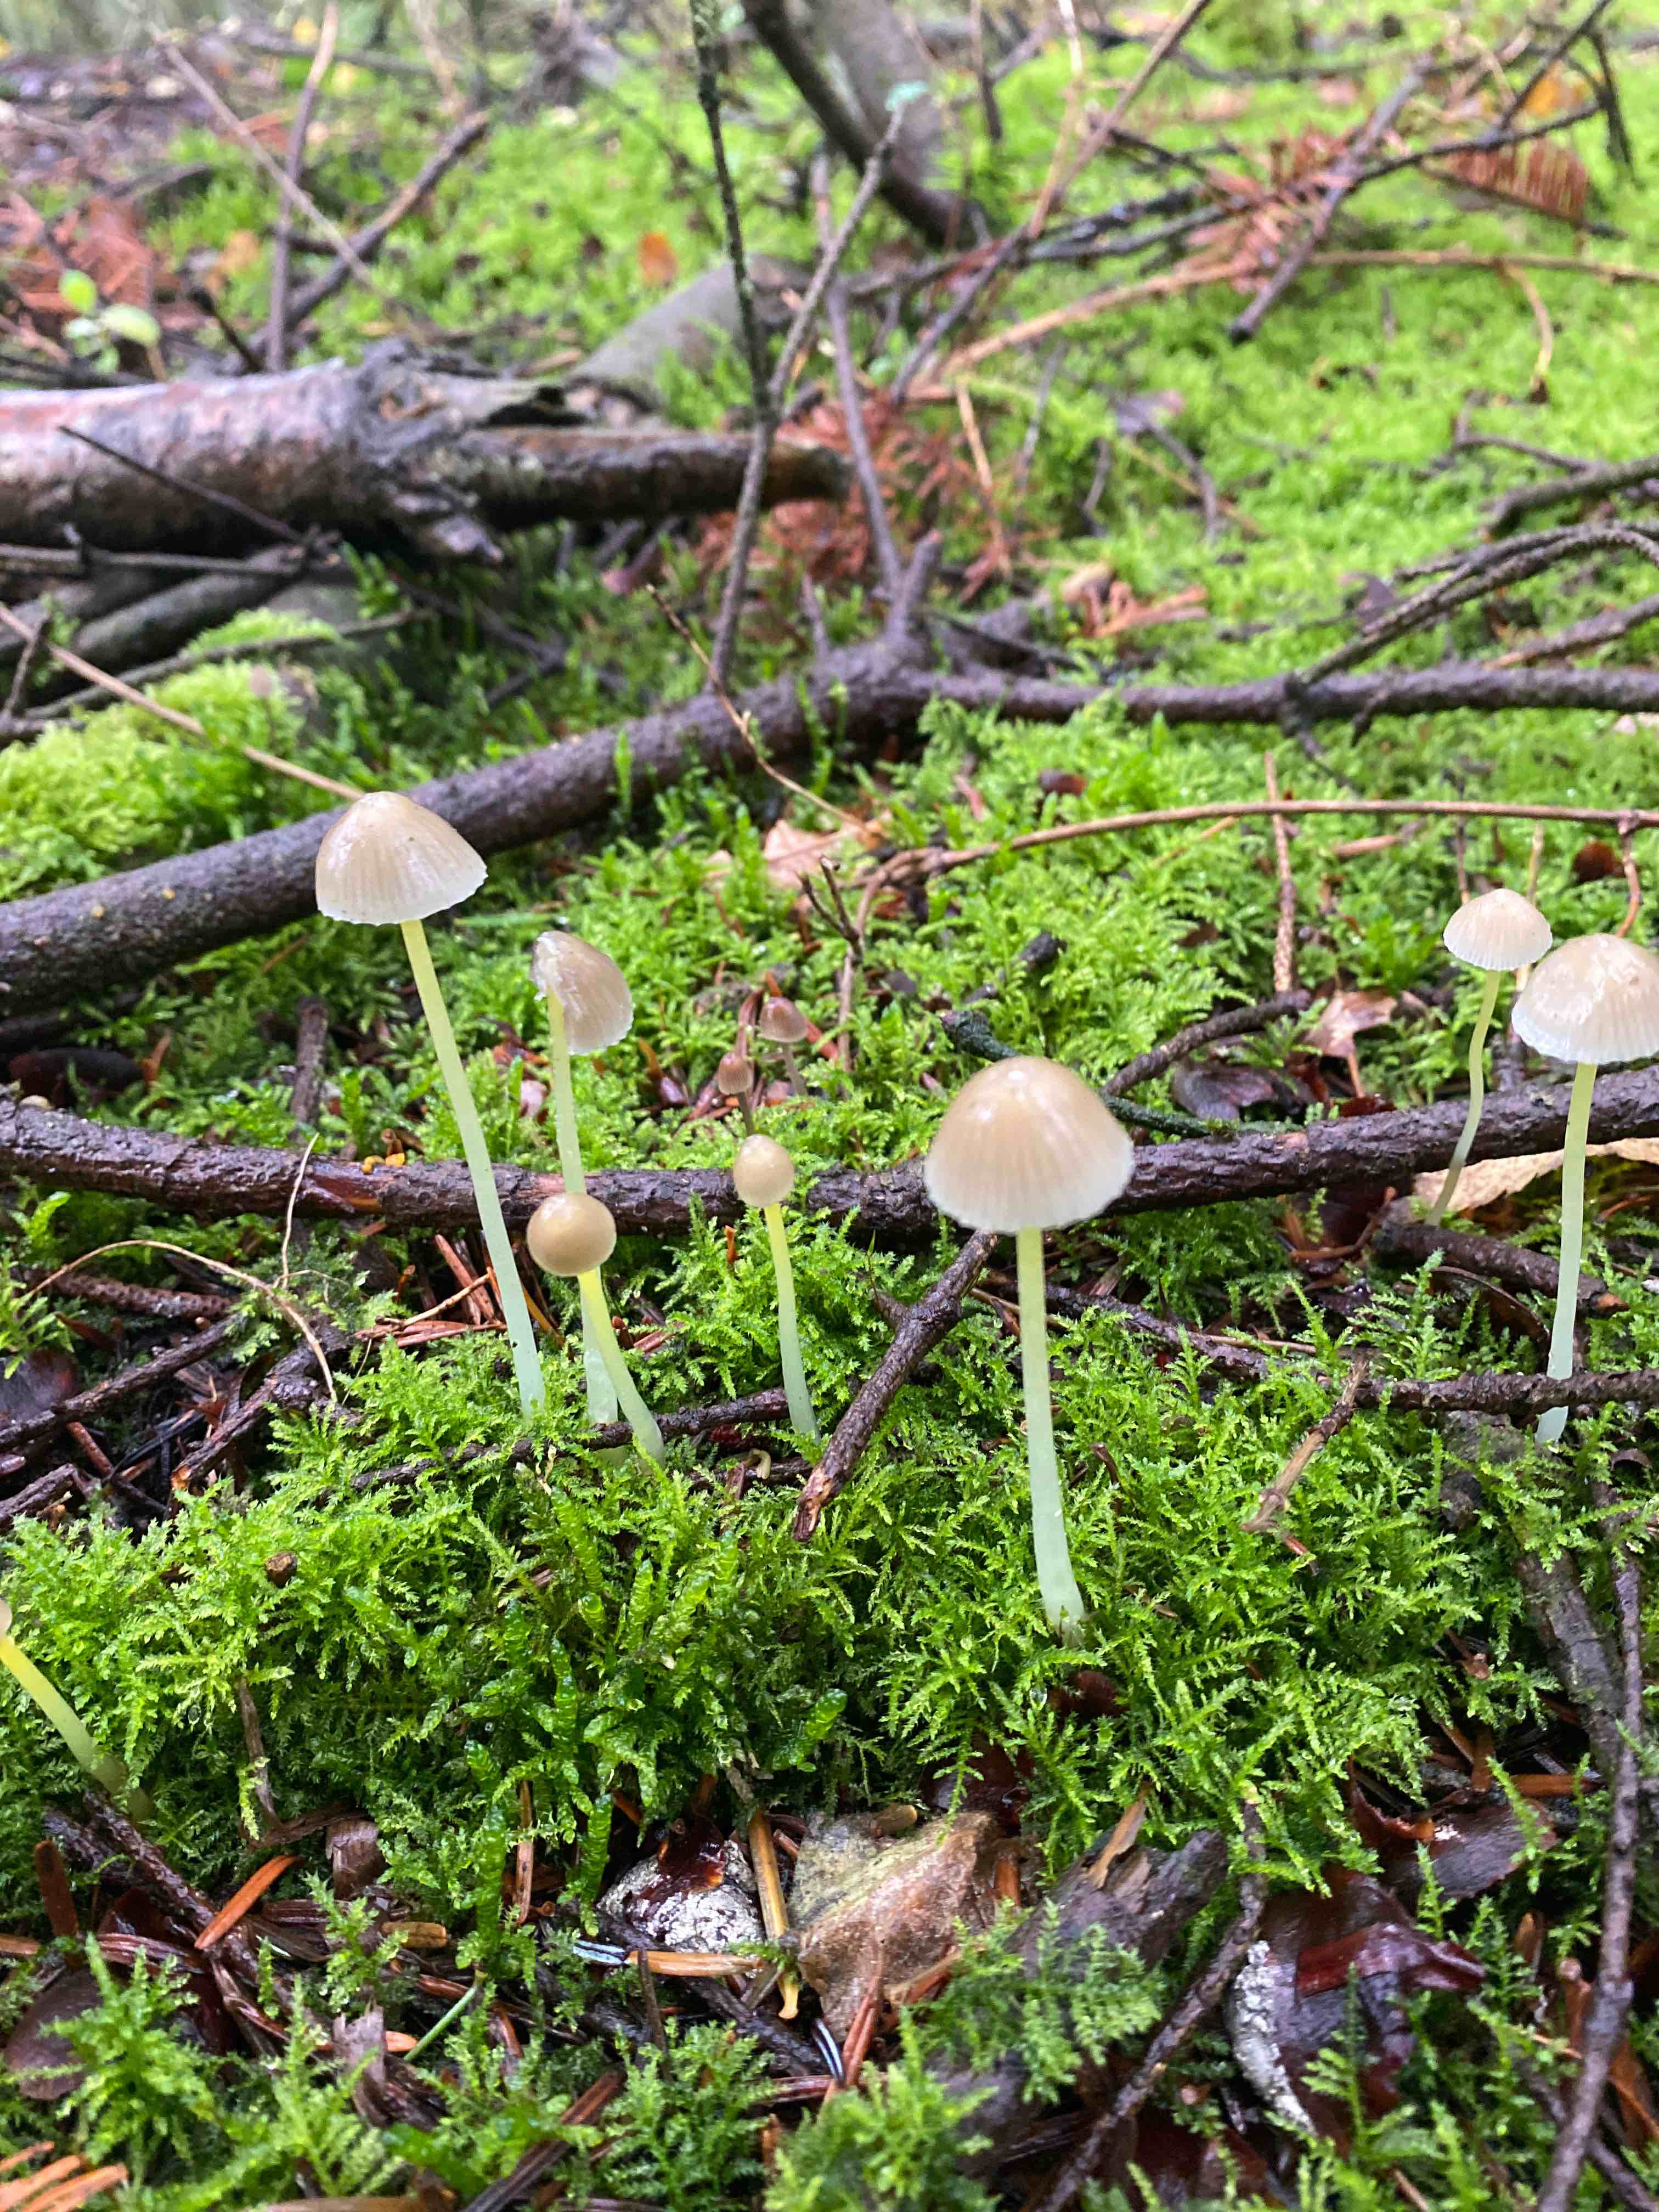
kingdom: Fungi
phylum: Basidiomycota
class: Agaricomycetes
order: Agaricales
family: Mycenaceae
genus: Mycena
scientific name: Mycena epipterygia
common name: gulstokket huesvamp
